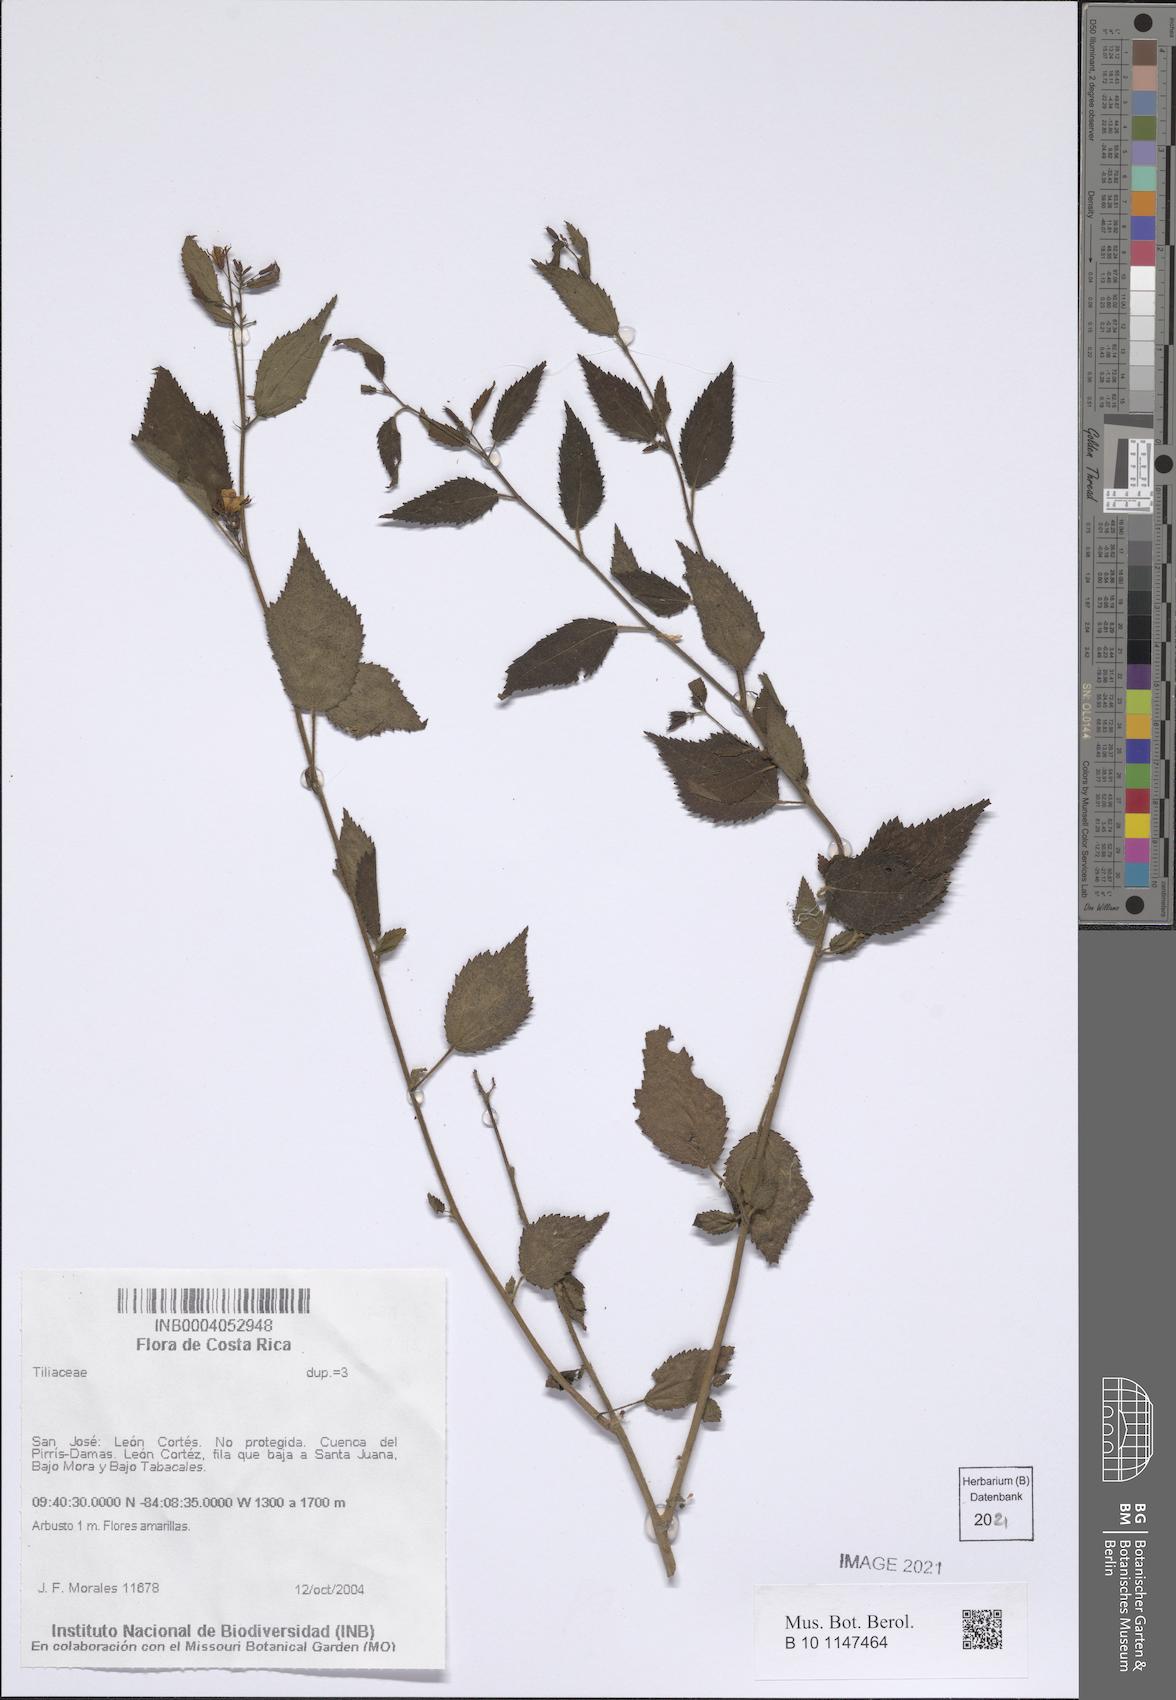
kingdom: Plantae
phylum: Tracheophyta
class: Magnoliopsida
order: Malvales
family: Tiliaceae
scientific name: Tiliaceae
